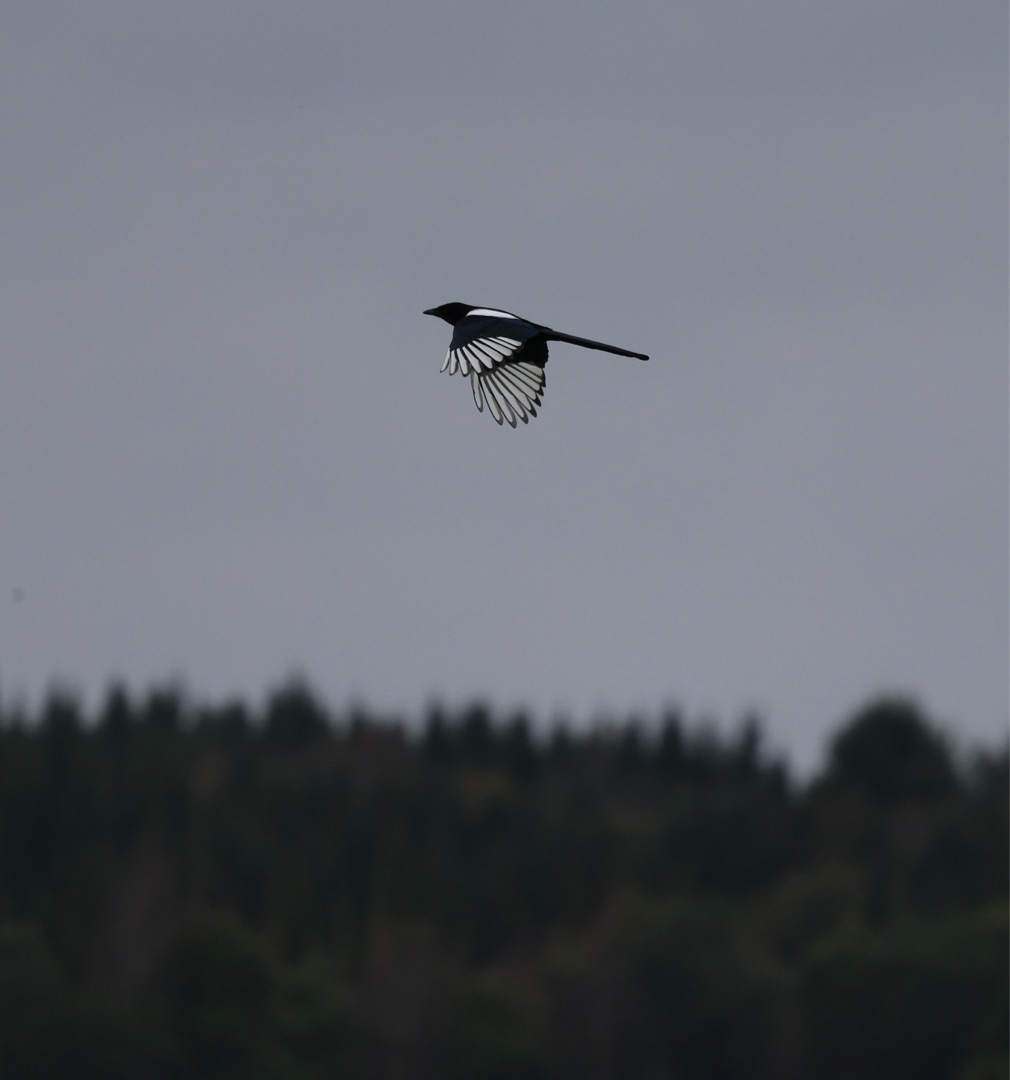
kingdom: Animalia
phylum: Chordata
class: Aves
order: Passeriformes
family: Corvidae
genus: Pica
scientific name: Pica pica
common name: Husskade
